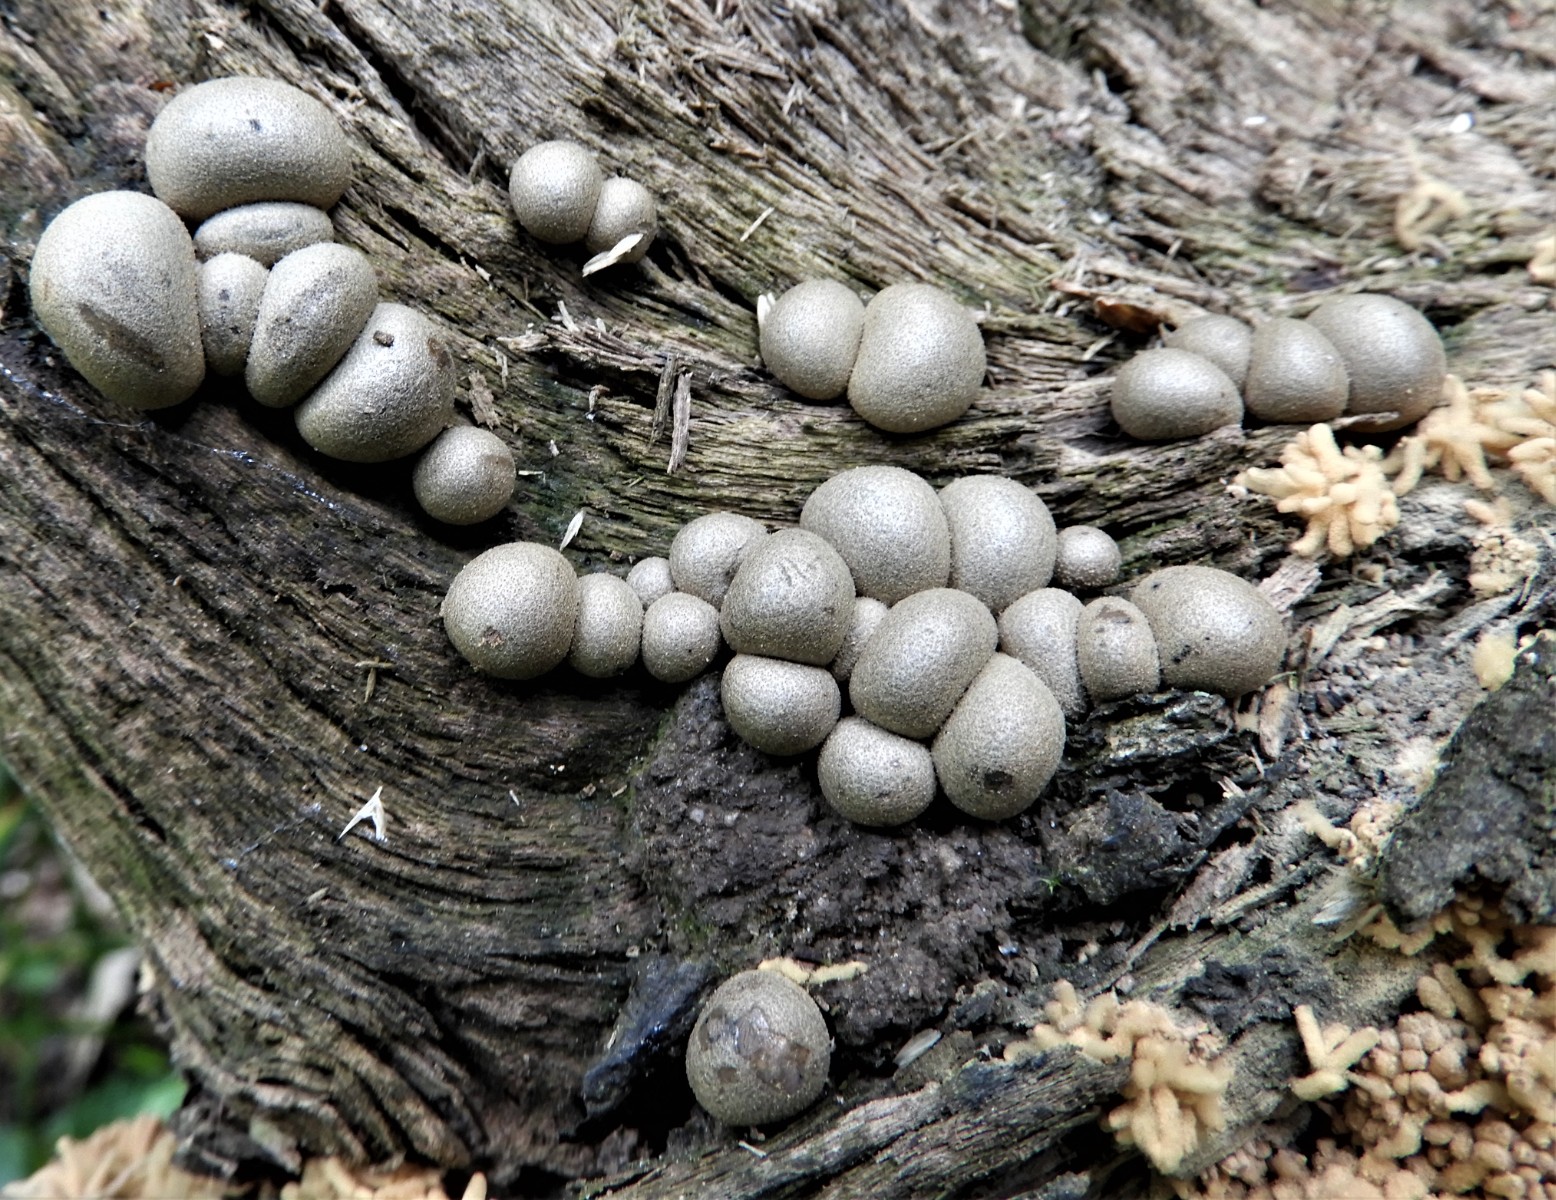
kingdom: Protozoa
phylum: Mycetozoa
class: Myxomycetes
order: Cribrariales
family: Tubiferaceae
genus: Lycogala
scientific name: Lycogala epidendrum
